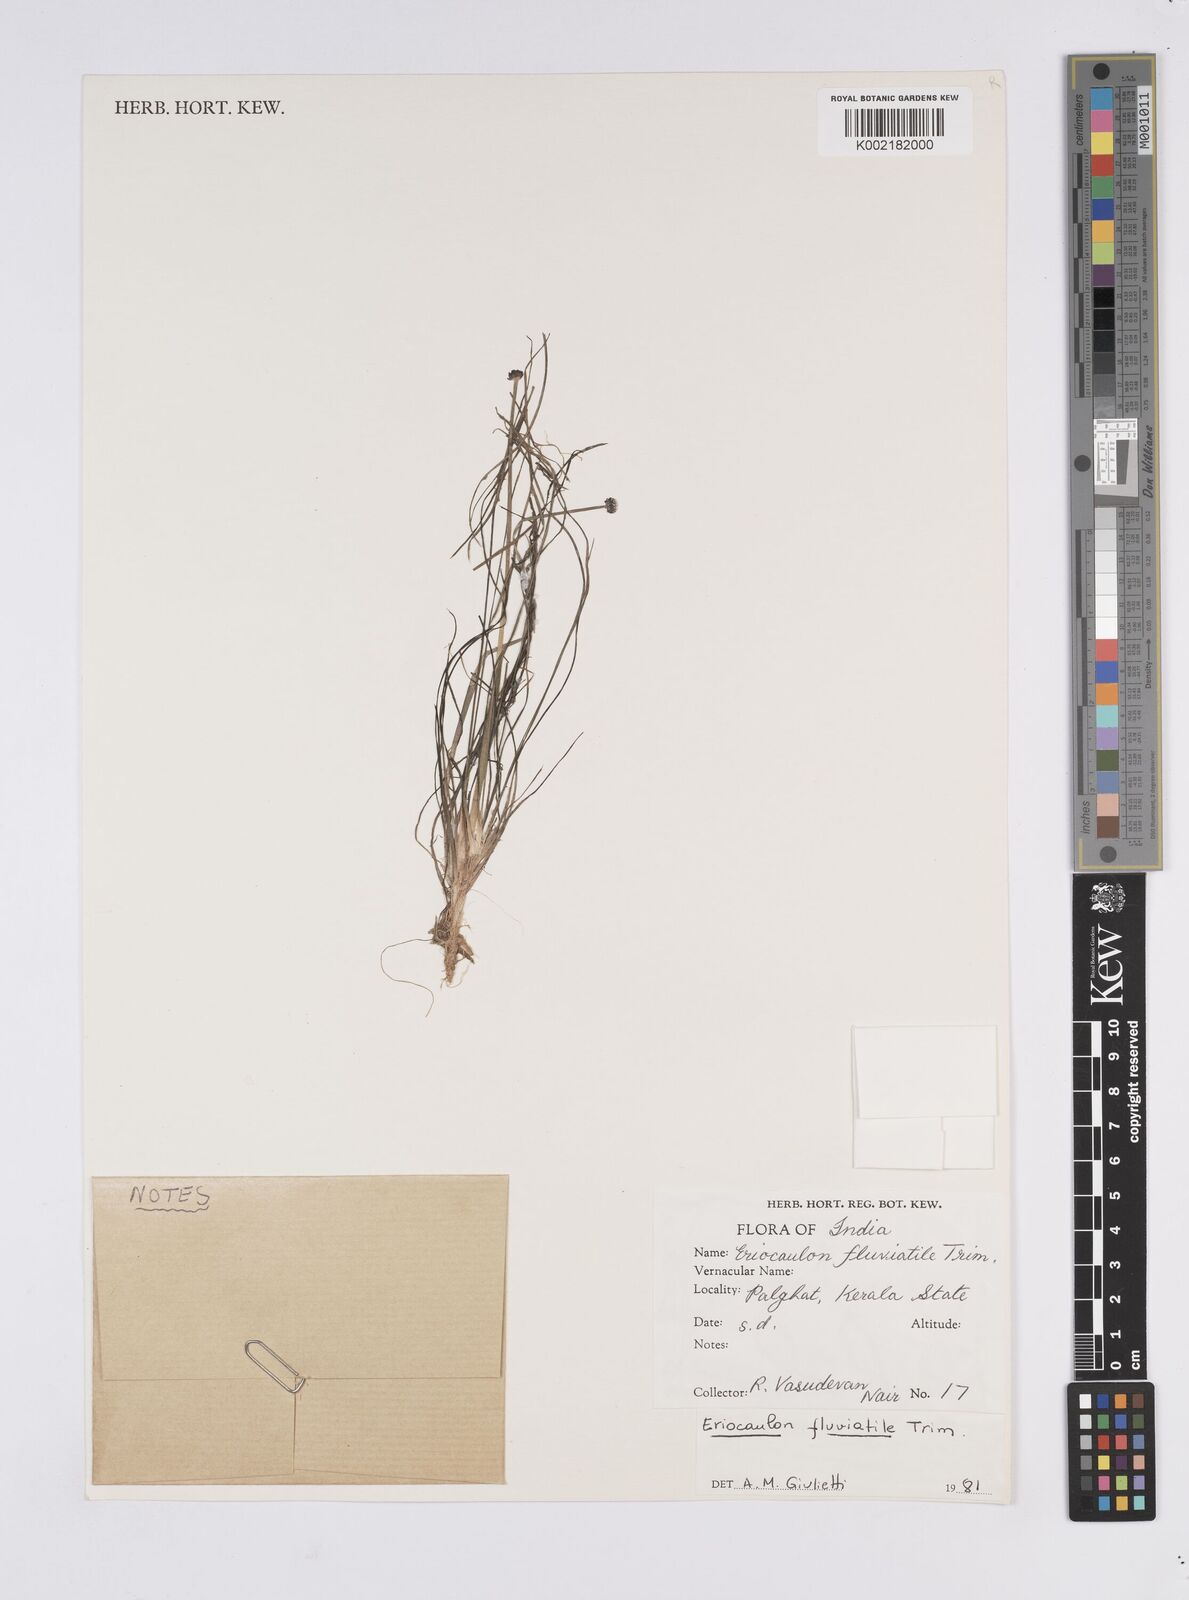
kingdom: Plantae
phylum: Tracheophyta
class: Liliopsida
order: Poales
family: Eriocaulaceae
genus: Eriocaulon
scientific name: Eriocaulon fluviatile
